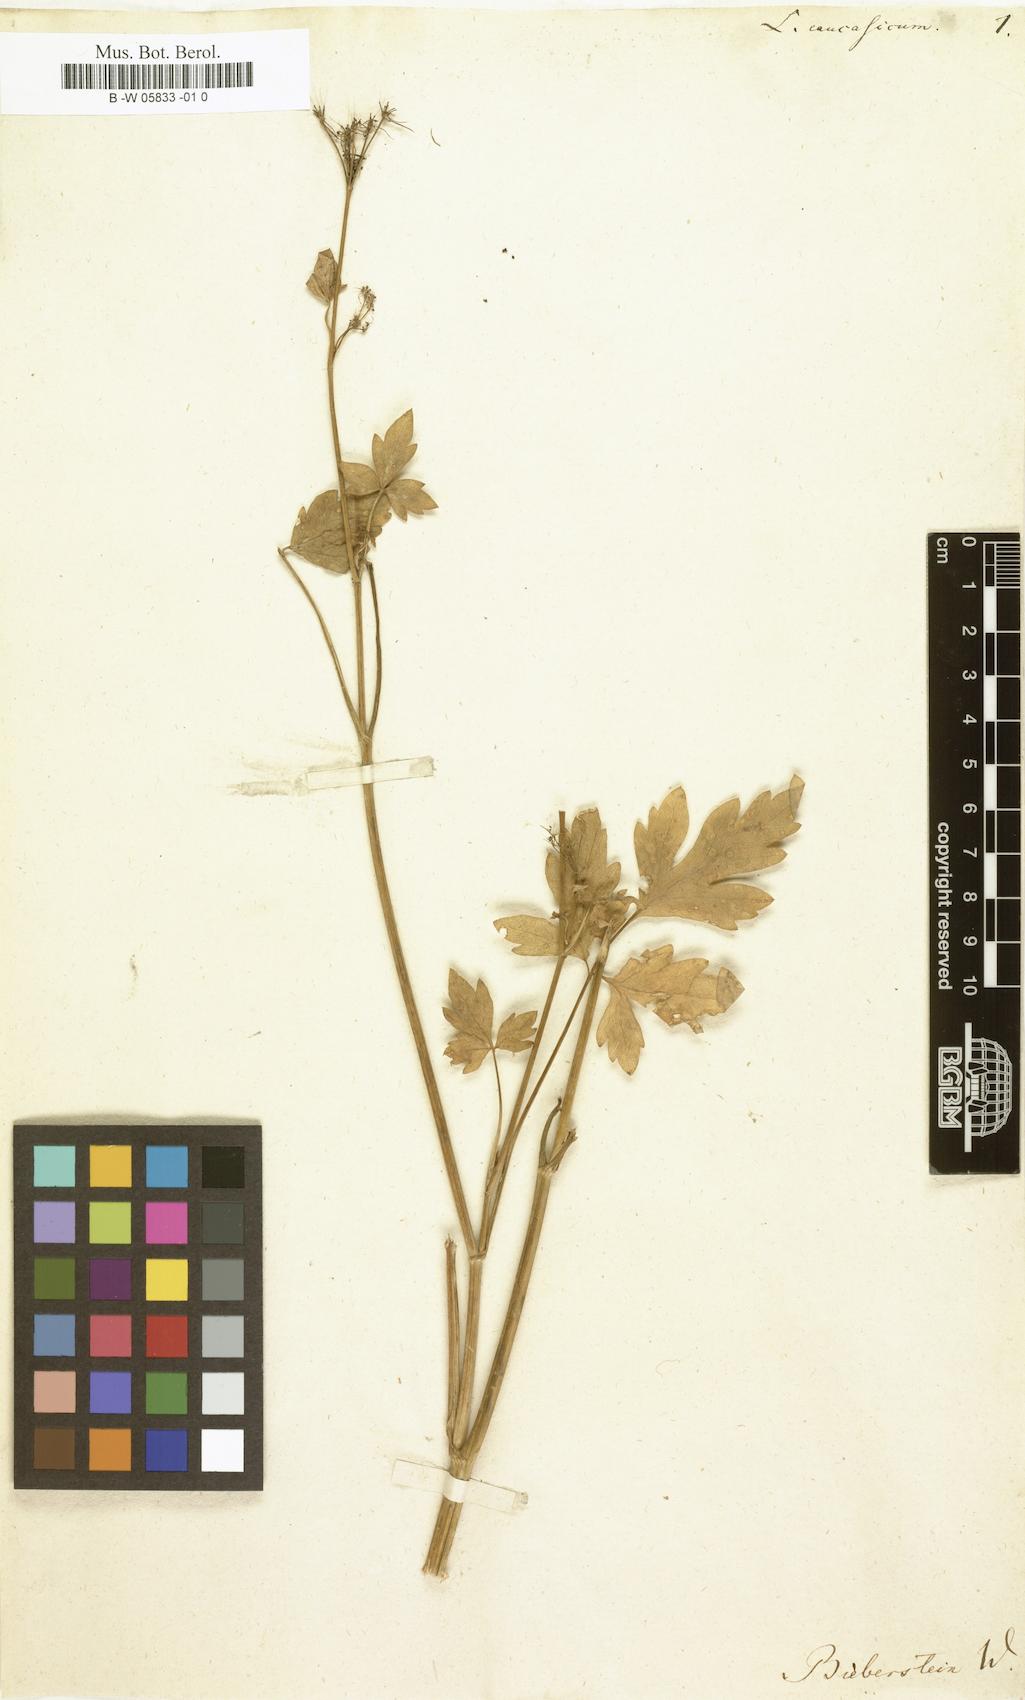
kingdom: Plantae
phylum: Tracheophyta
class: Magnoliopsida
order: Apiales
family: Apiaceae
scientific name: Apiaceae
